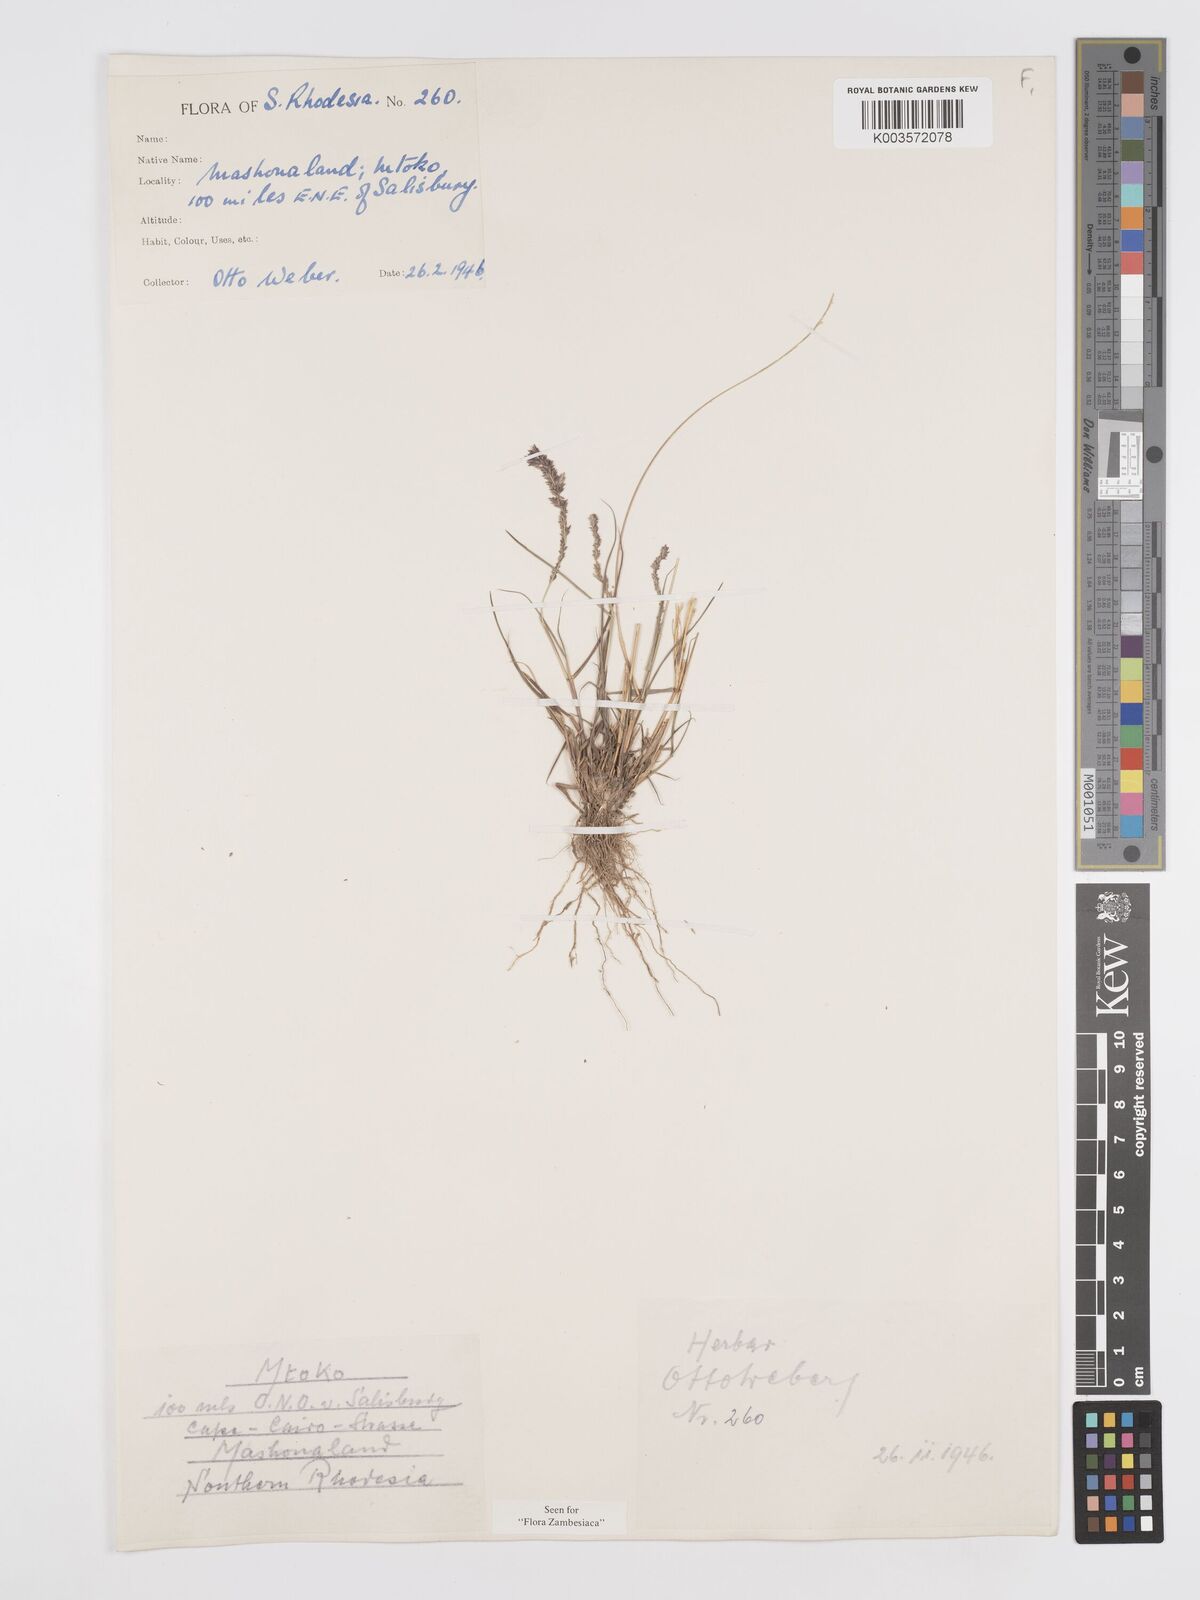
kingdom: Plantae
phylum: Tracheophyta
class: Liliopsida
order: Poales
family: Poaceae
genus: Eragrostis
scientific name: Eragrostis ciliaris
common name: Gophertail lovegrass
